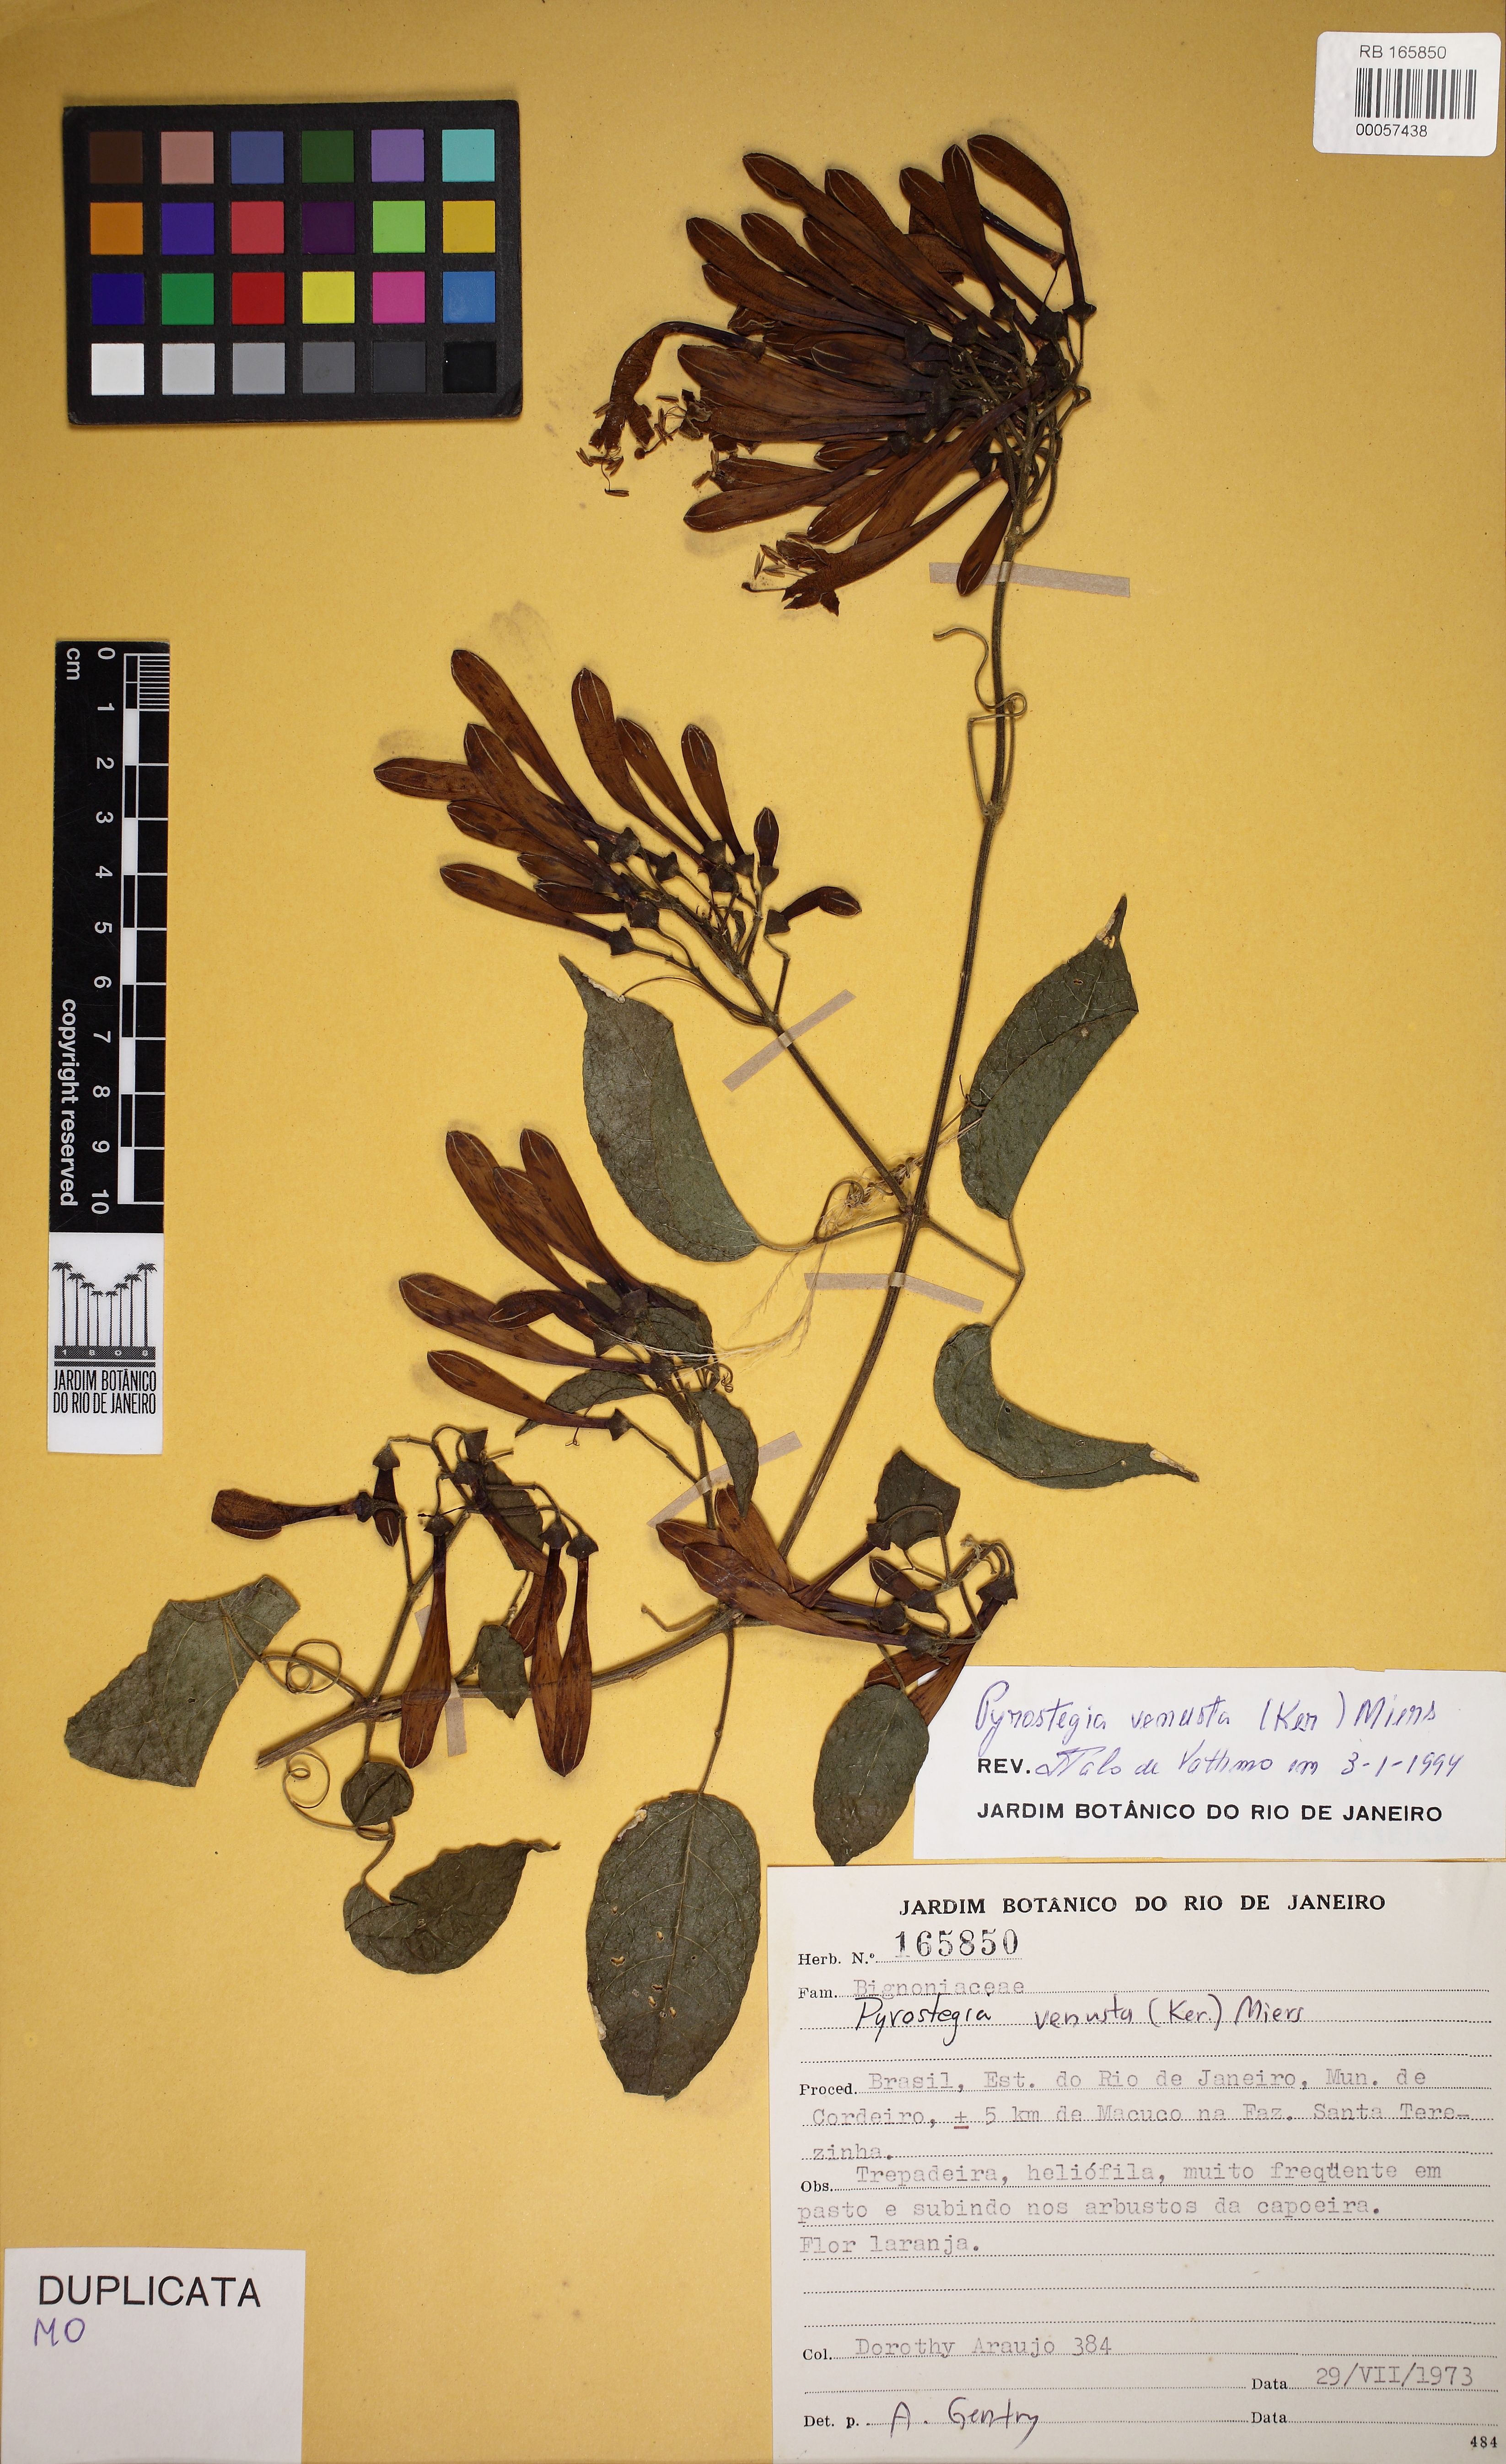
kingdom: Plantae
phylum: Tracheophyta
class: Magnoliopsida
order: Lamiales
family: Bignoniaceae
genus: Pyrostegia
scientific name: Pyrostegia venusta
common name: Flamevine
